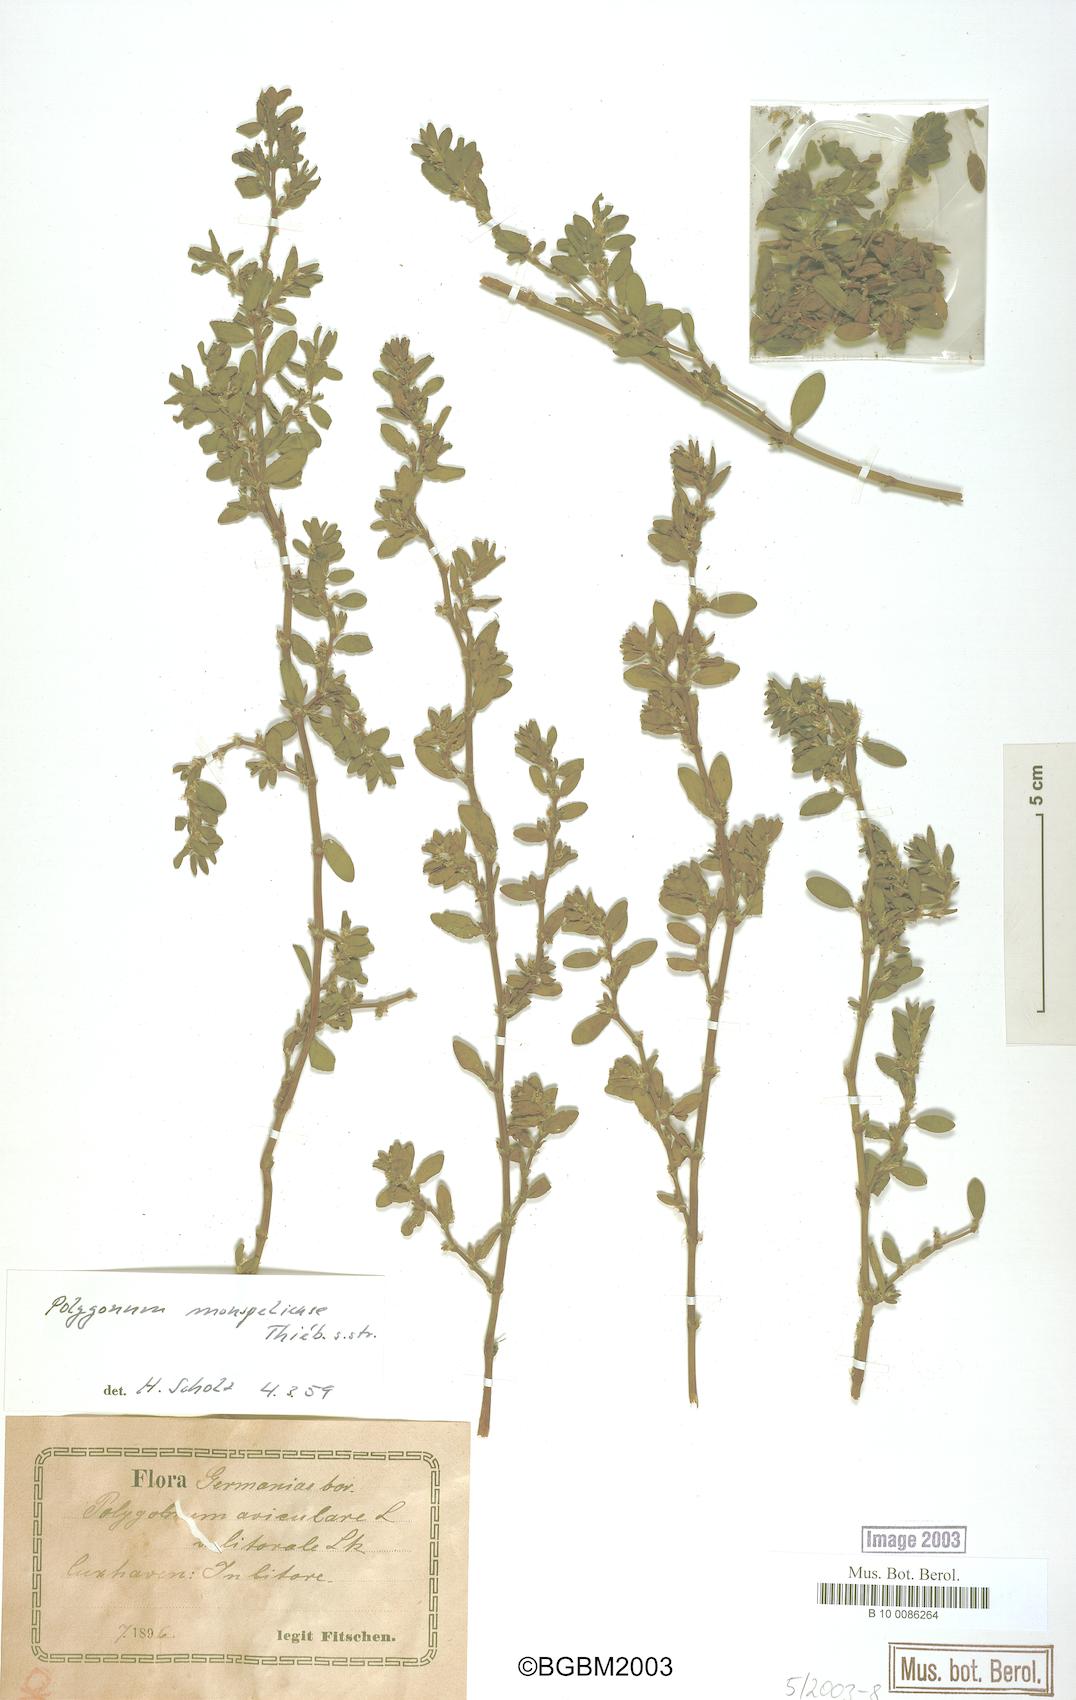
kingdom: Plantae
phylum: Tracheophyta
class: Magnoliopsida
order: Caryophyllales
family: Polygonaceae
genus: Polygonum
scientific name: Polygonum
